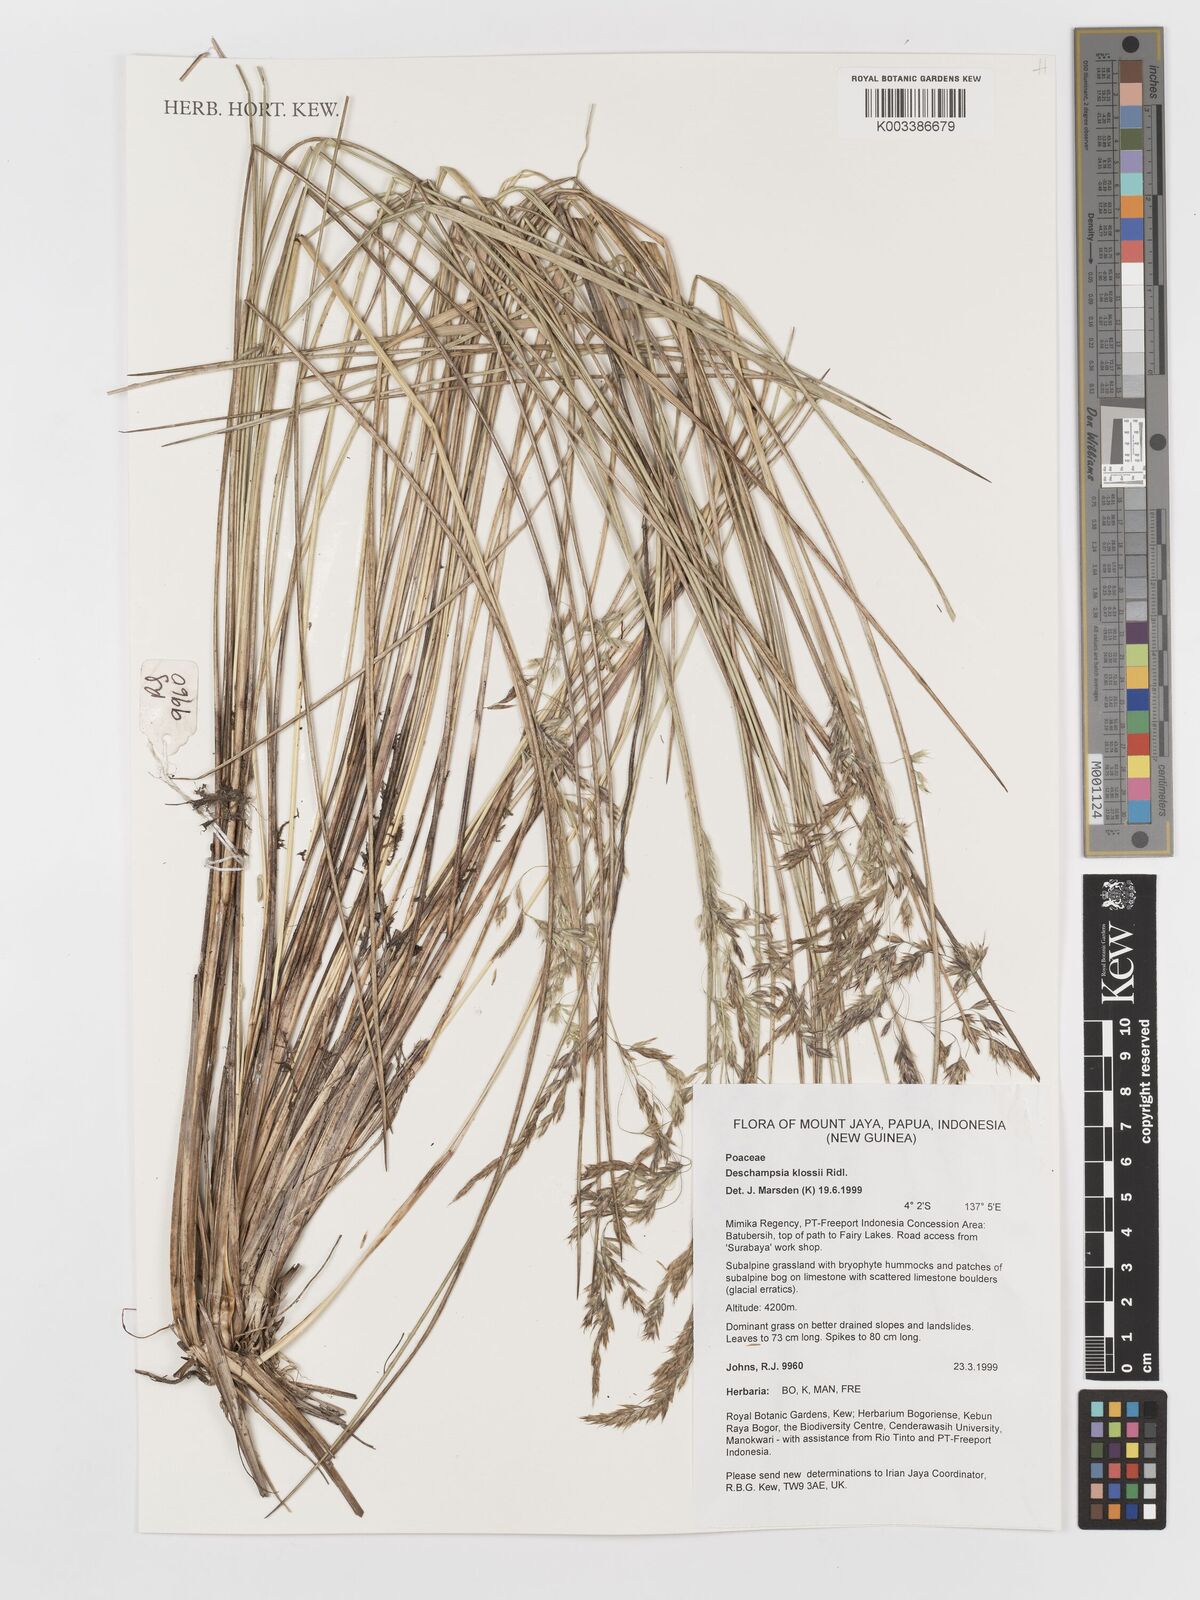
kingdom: Plantae
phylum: Tracheophyta
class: Liliopsida
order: Poales
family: Poaceae
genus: Deschampsia
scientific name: Deschampsia klossii
